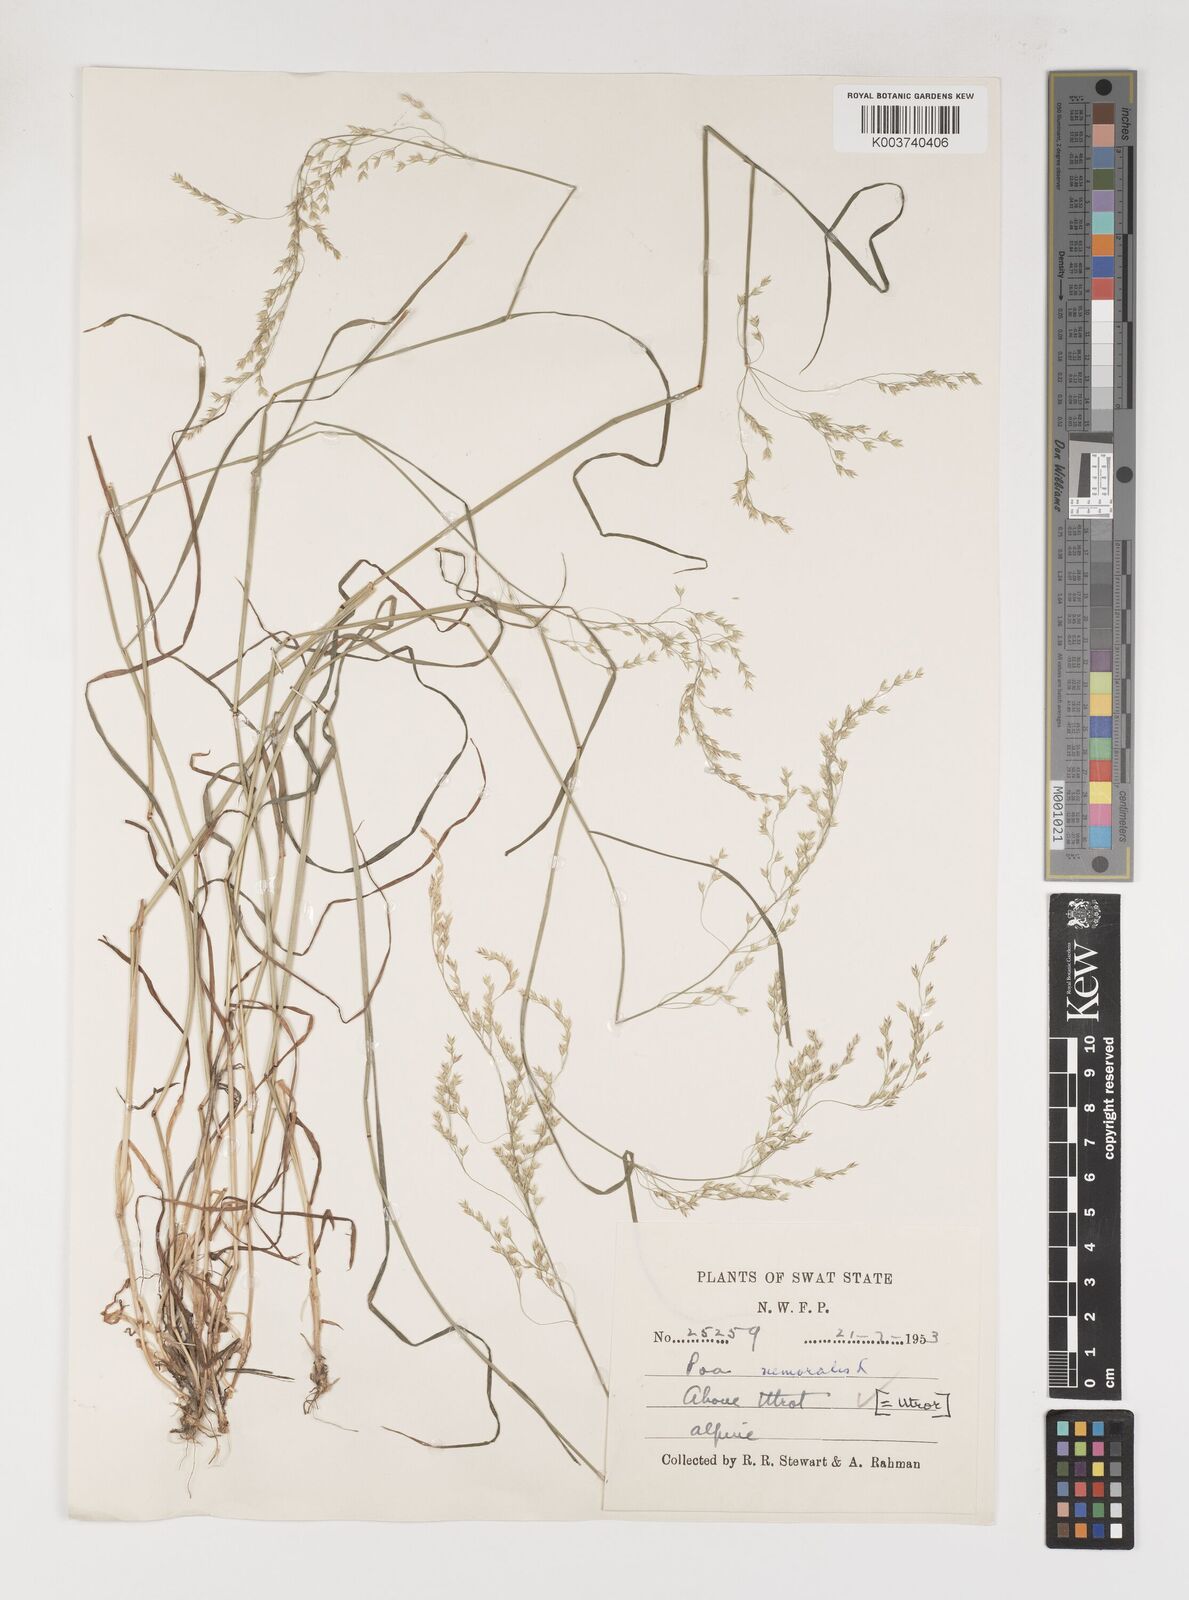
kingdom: Plantae
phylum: Tracheophyta
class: Liliopsida
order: Poales
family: Poaceae
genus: Poa
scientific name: Poa nemoralis
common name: Wood bluegrass
